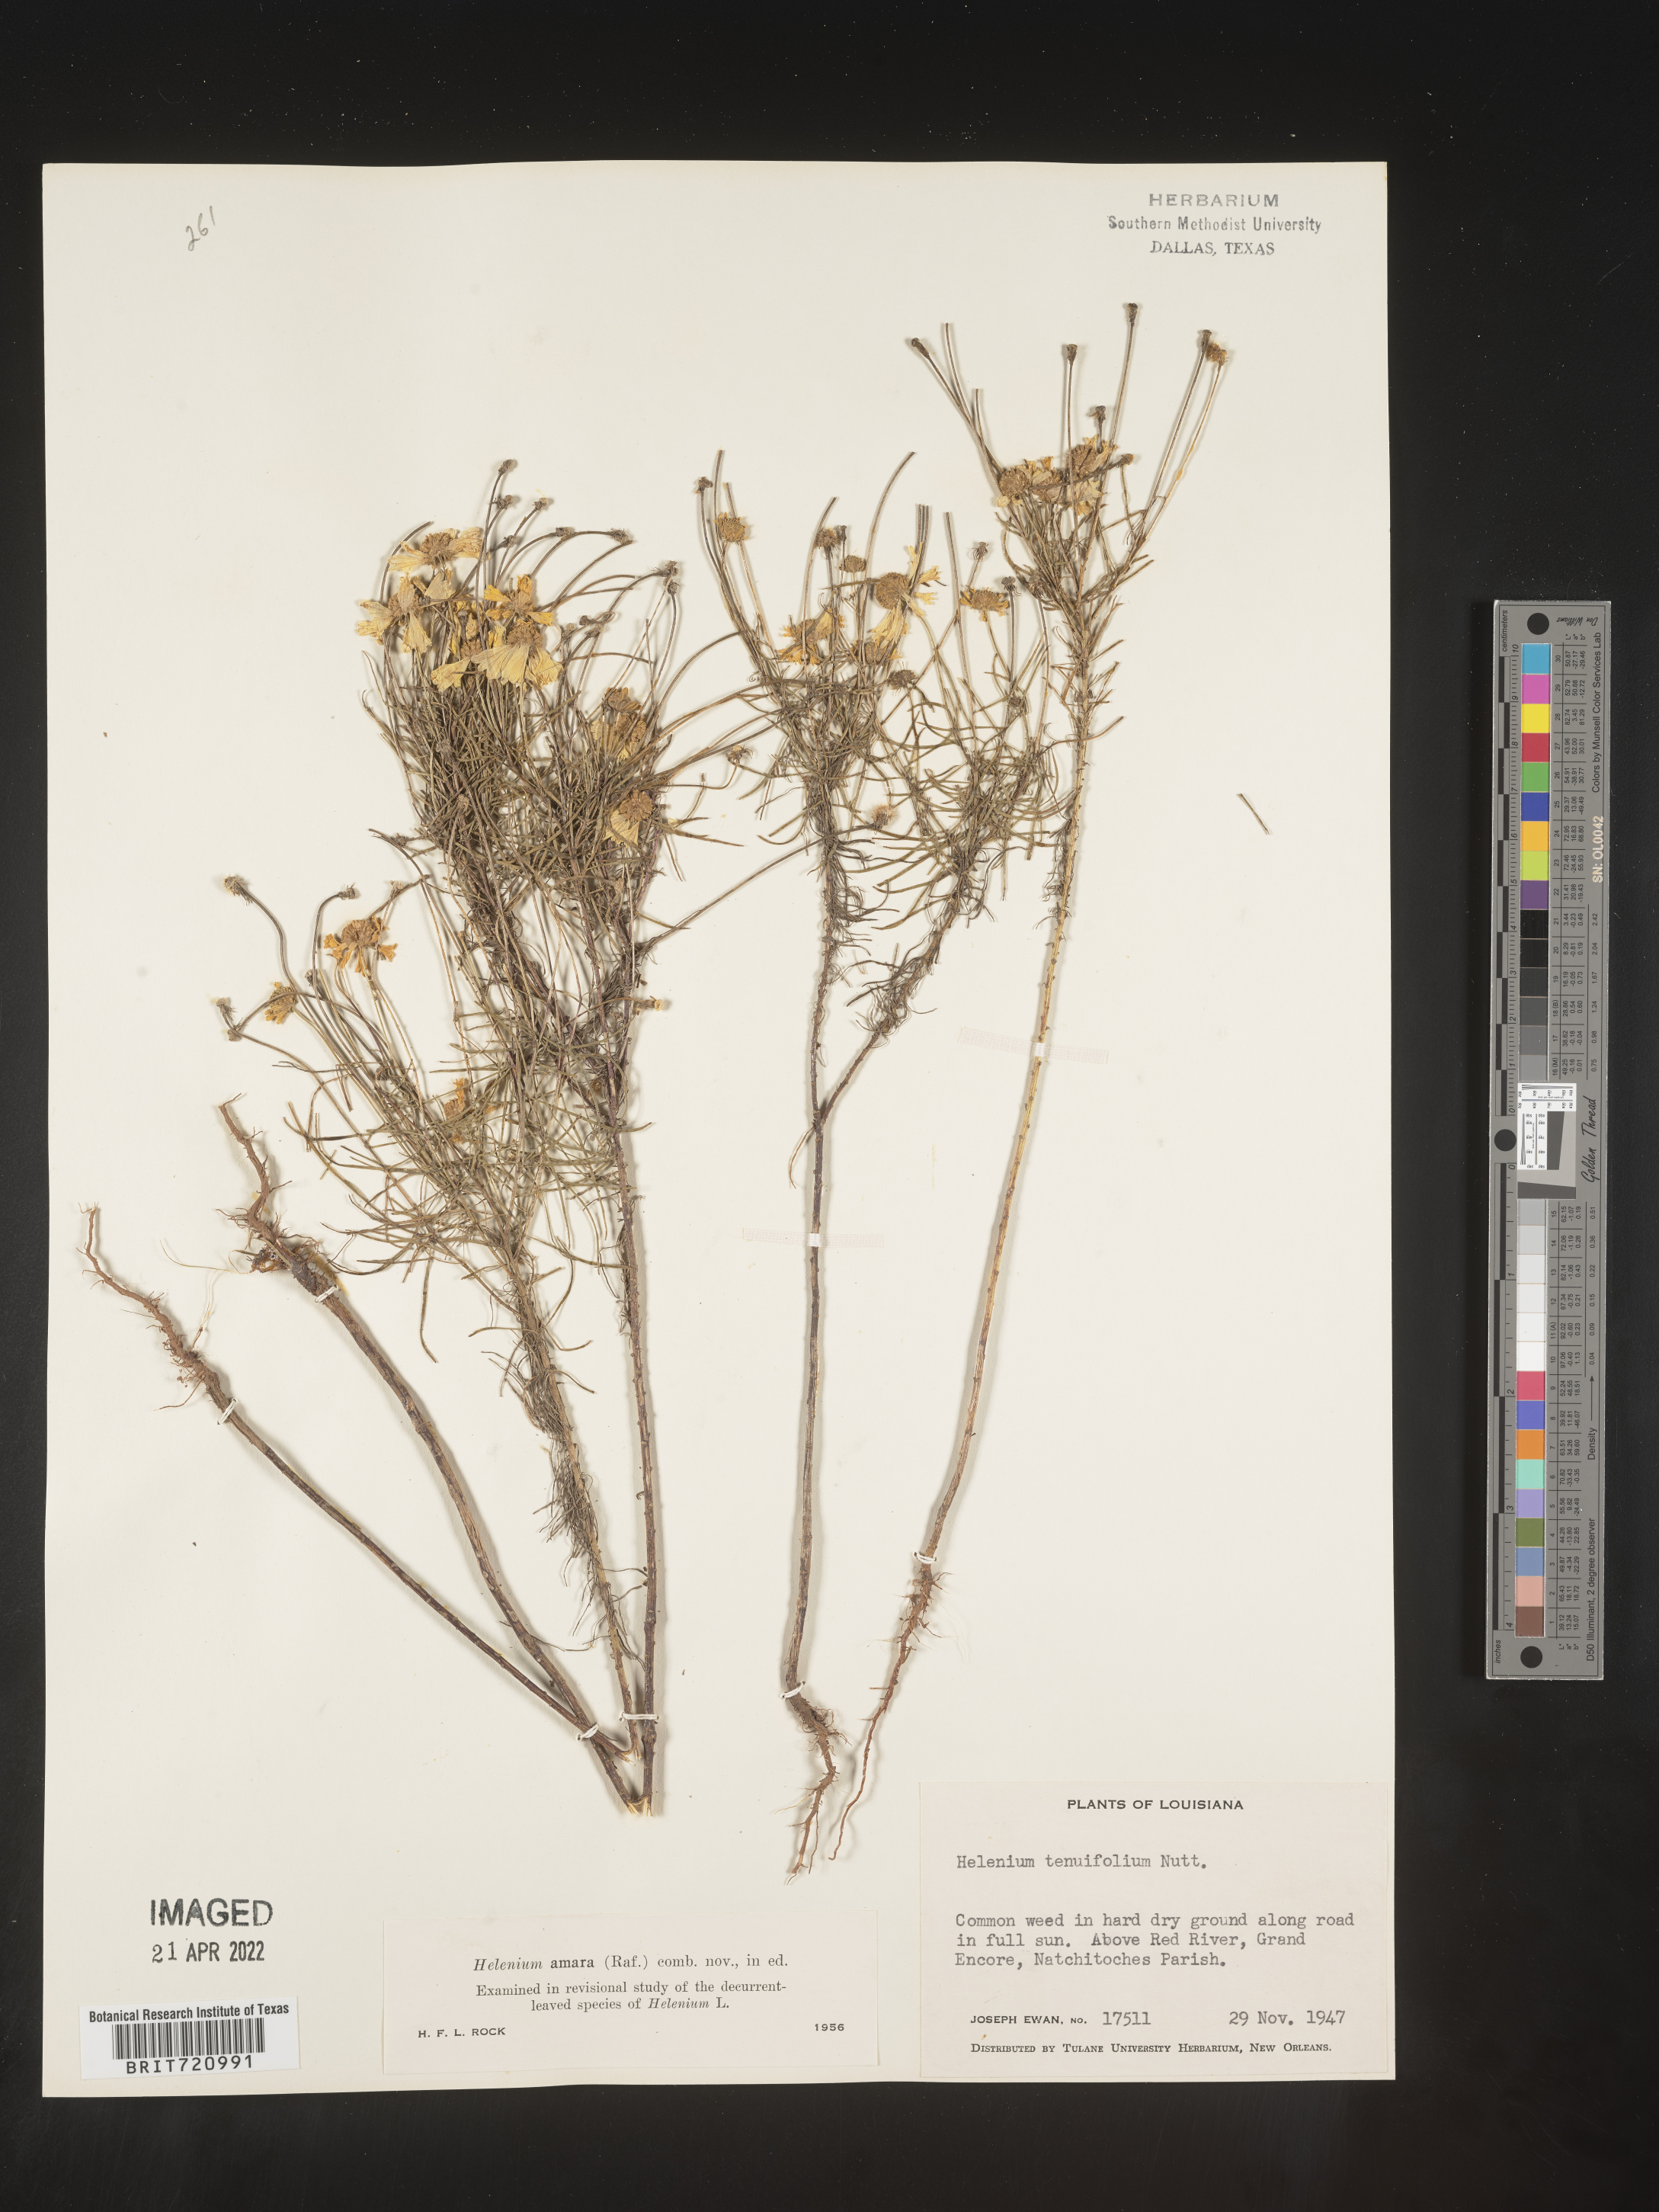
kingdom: Plantae
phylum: Tracheophyta
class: Magnoliopsida
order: Asterales
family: Asteraceae
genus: Helenium
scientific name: Helenium amarum
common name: Bitter sneezeweed
